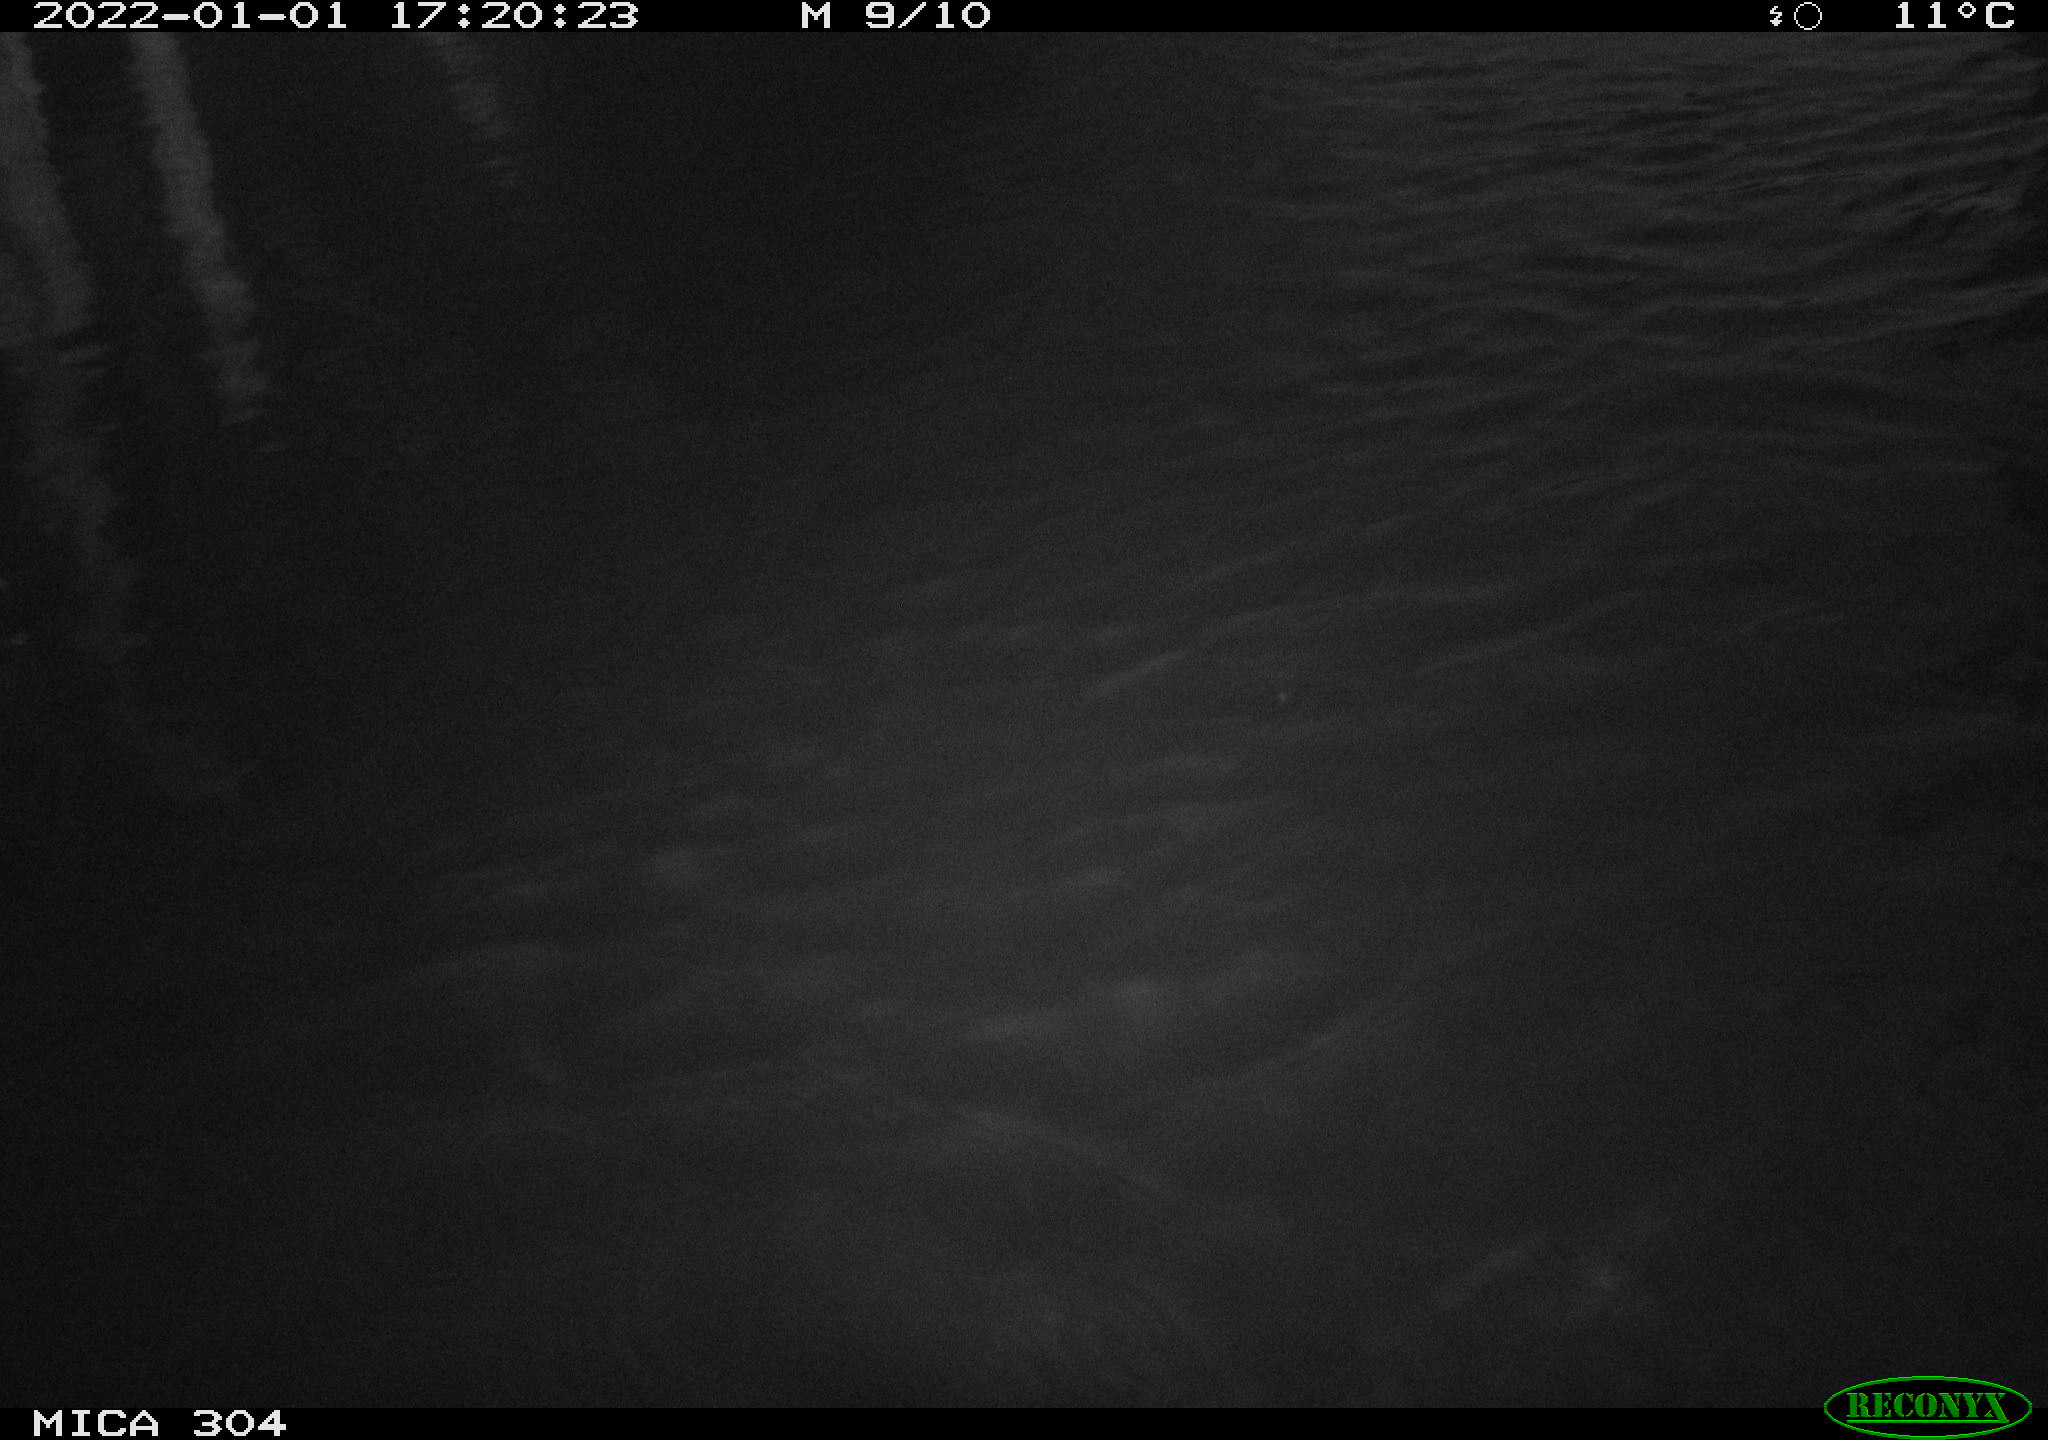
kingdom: Animalia
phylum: Chordata
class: Aves
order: Anseriformes
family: Anatidae
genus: Anas
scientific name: Anas
